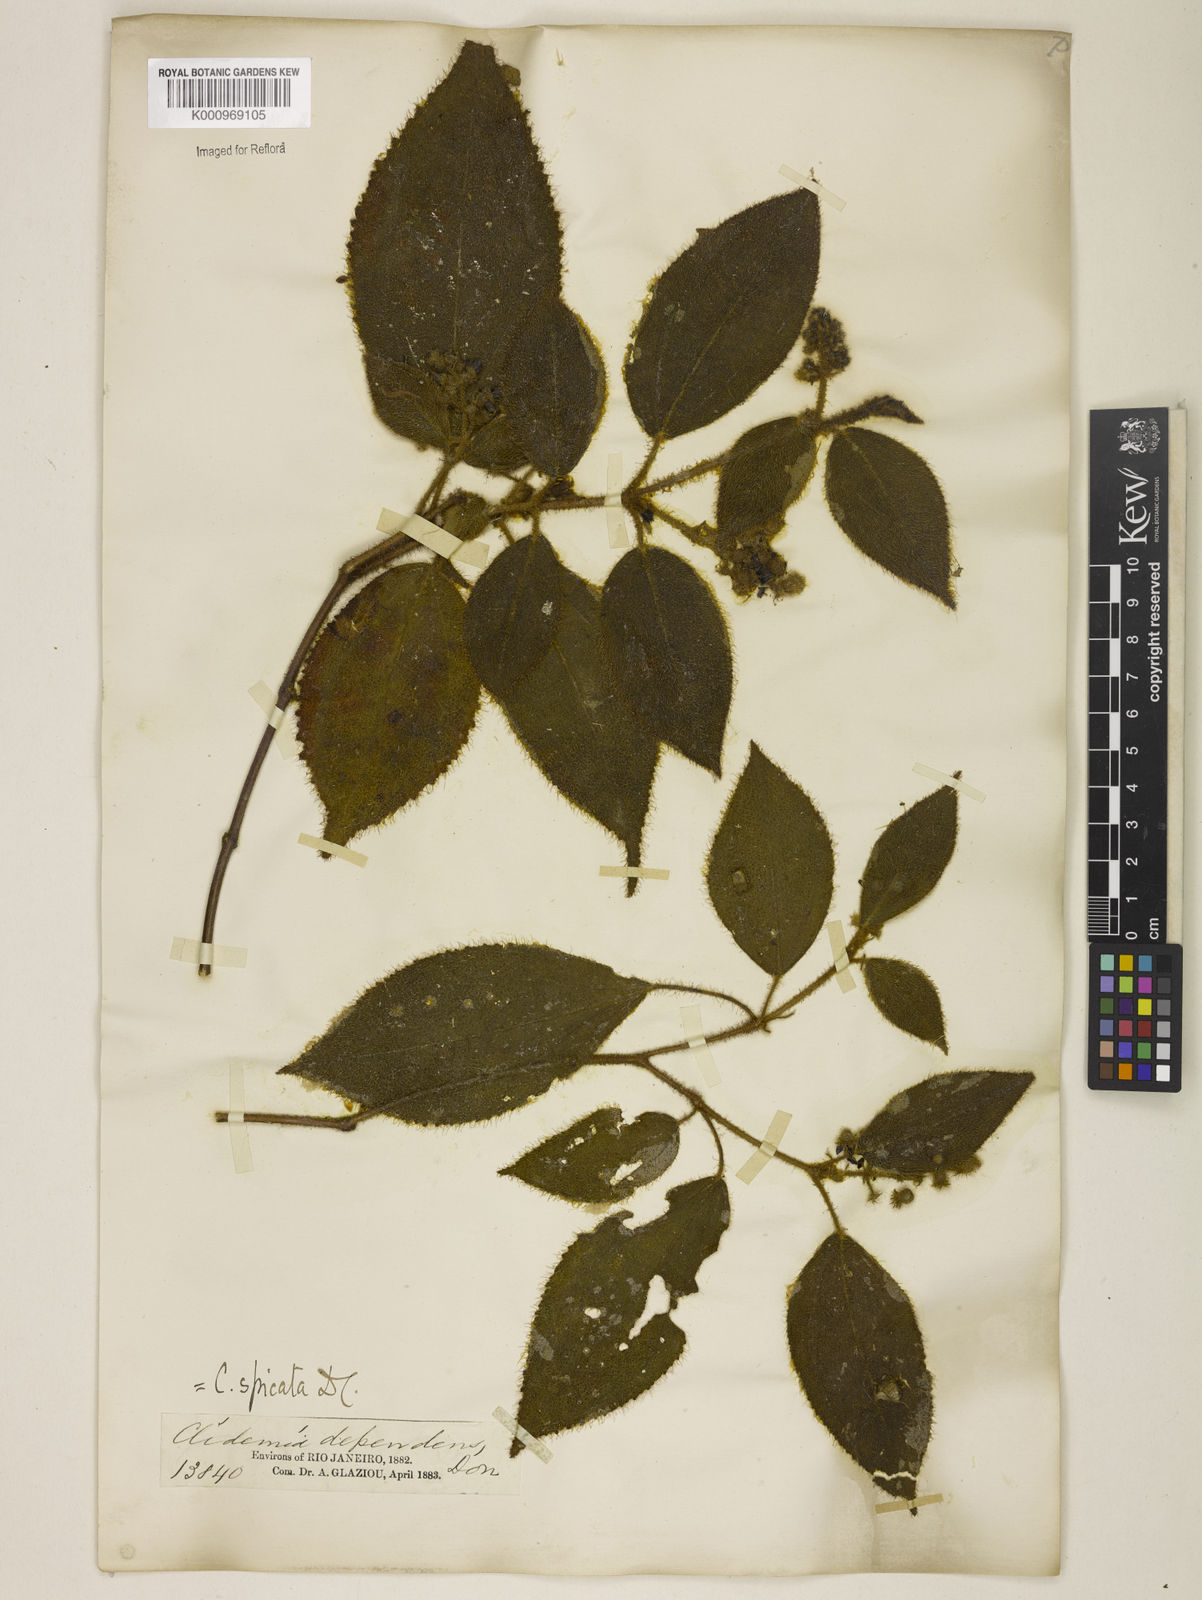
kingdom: Plantae
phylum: Tracheophyta
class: Magnoliopsida
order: Myrtales
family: Melastomataceae
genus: Miconia
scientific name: Miconia dependens
